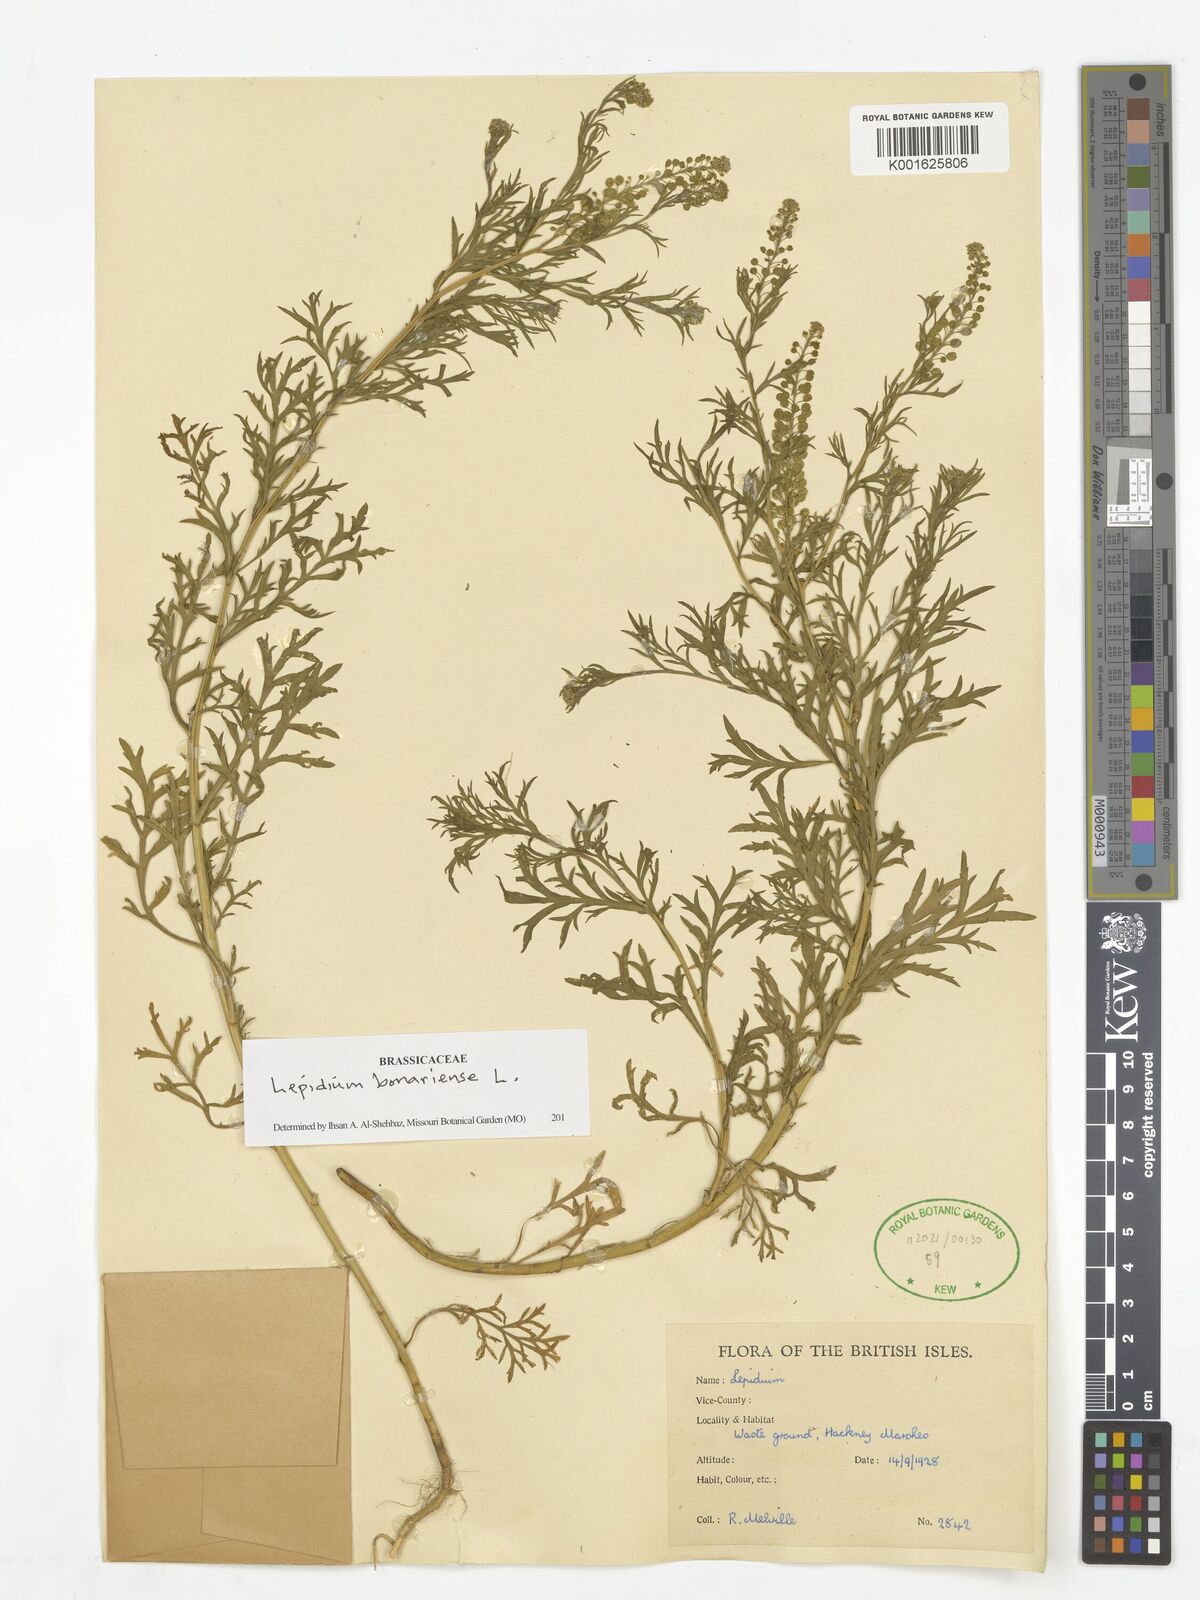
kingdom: Plantae
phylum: Tracheophyta
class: Magnoliopsida
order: Brassicales
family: Brassicaceae
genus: Lepidium
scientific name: Lepidium bonariense
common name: Argentine pepperwort
